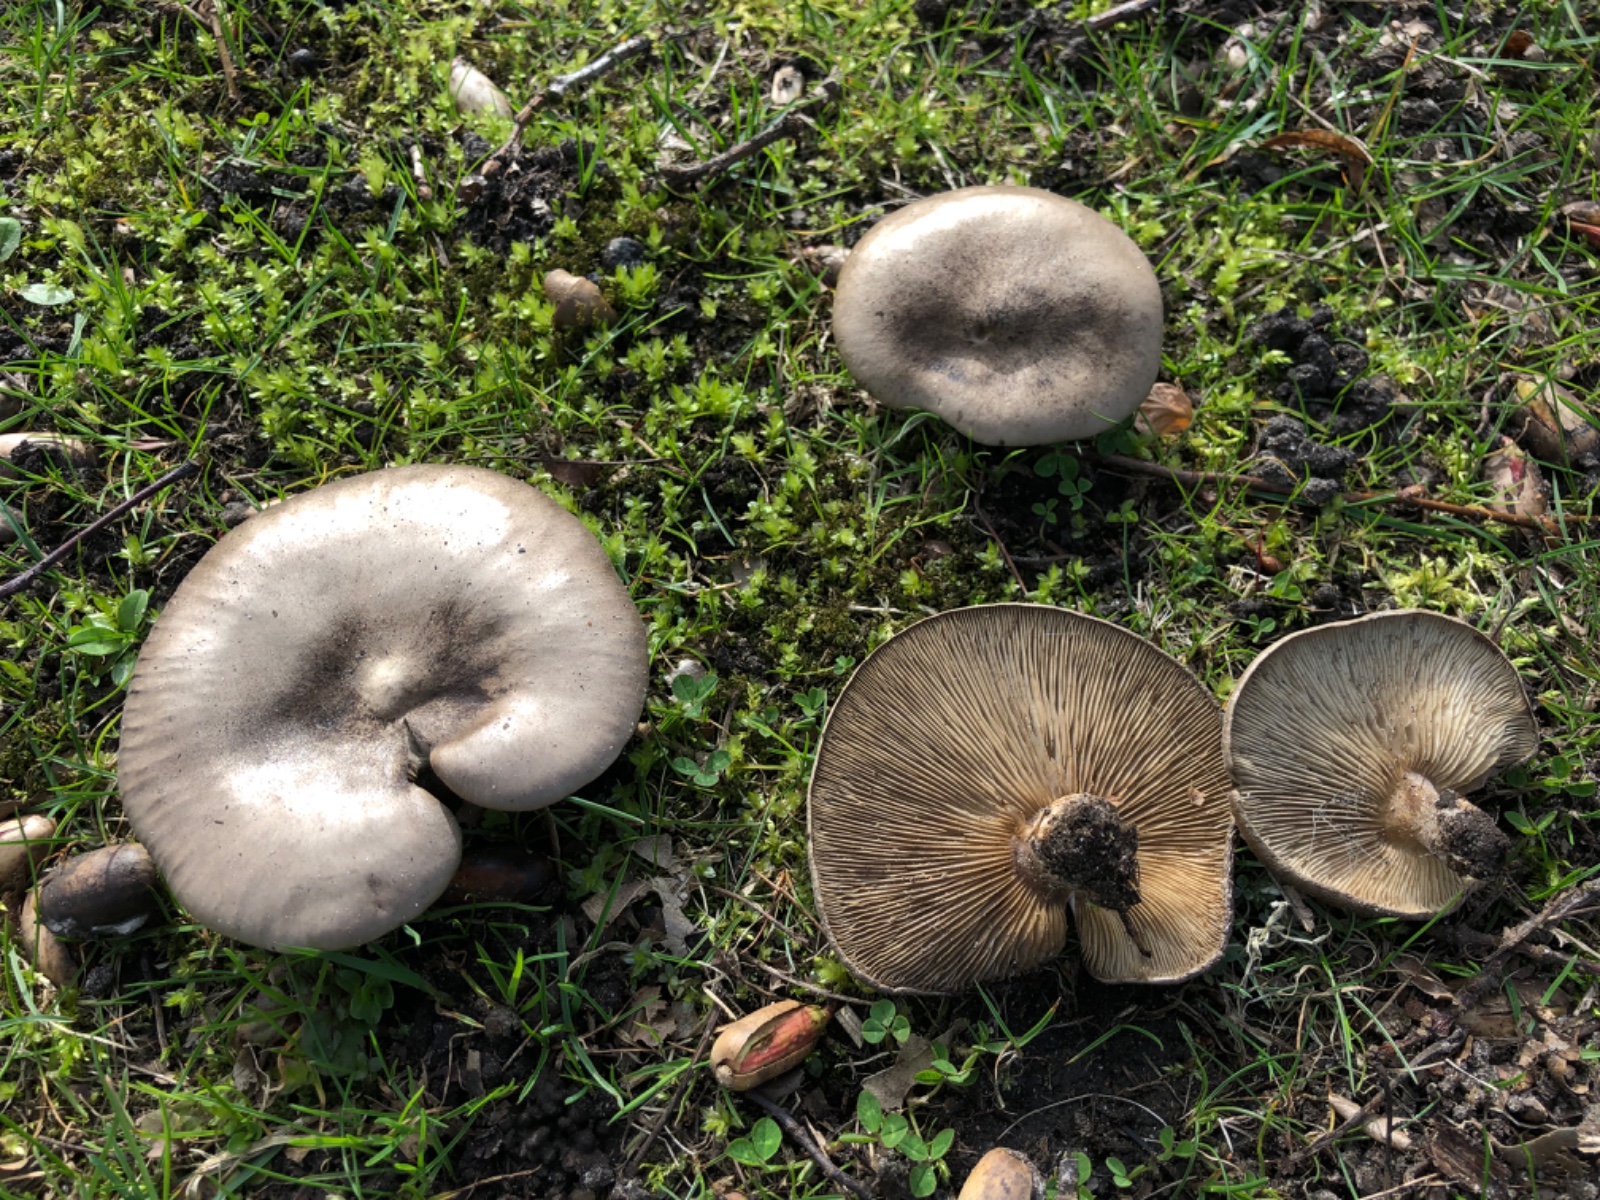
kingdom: Fungi
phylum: Basidiomycota
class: Agaricomycetes
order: Agaricales
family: Tricholomataceae
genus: Melanoleuca
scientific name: Melanoleuca
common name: munkehat
